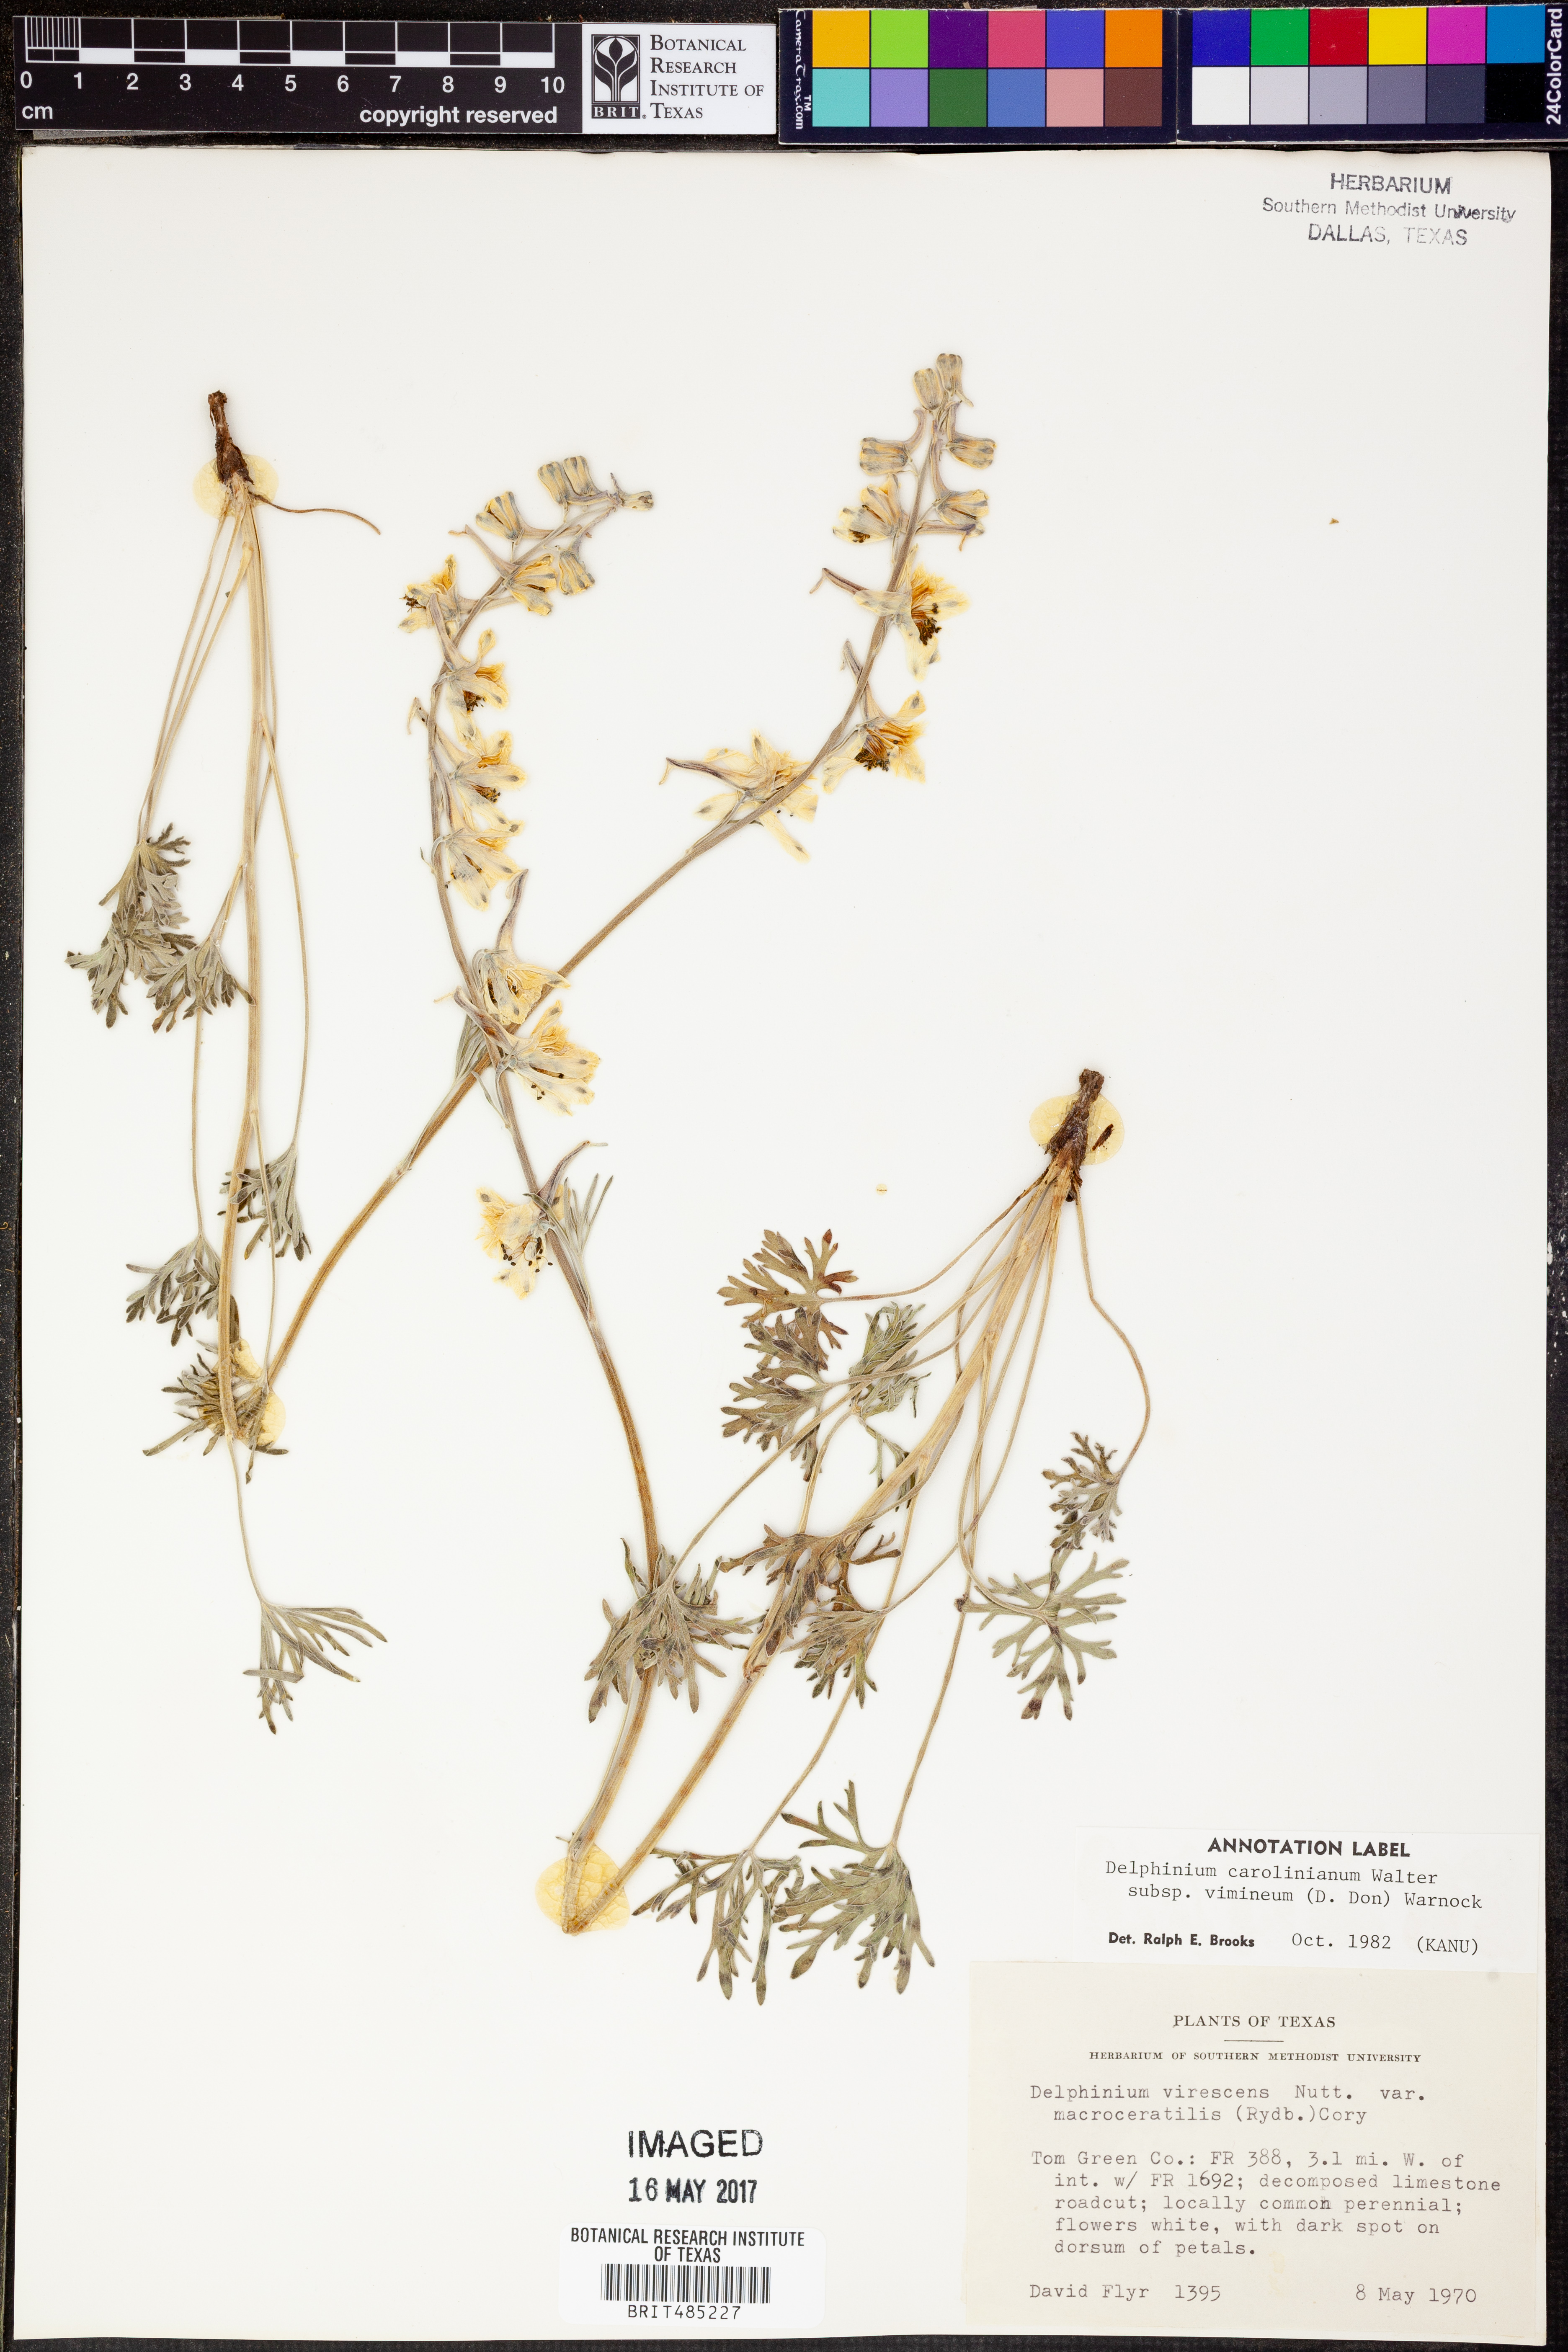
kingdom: Plantae
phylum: Tracheophyta
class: Magnoliopsida
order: Ranunculales
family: Ranunculaceae
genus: Delphinium
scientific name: Delphinium carolinianum
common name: Carolina larkspur
